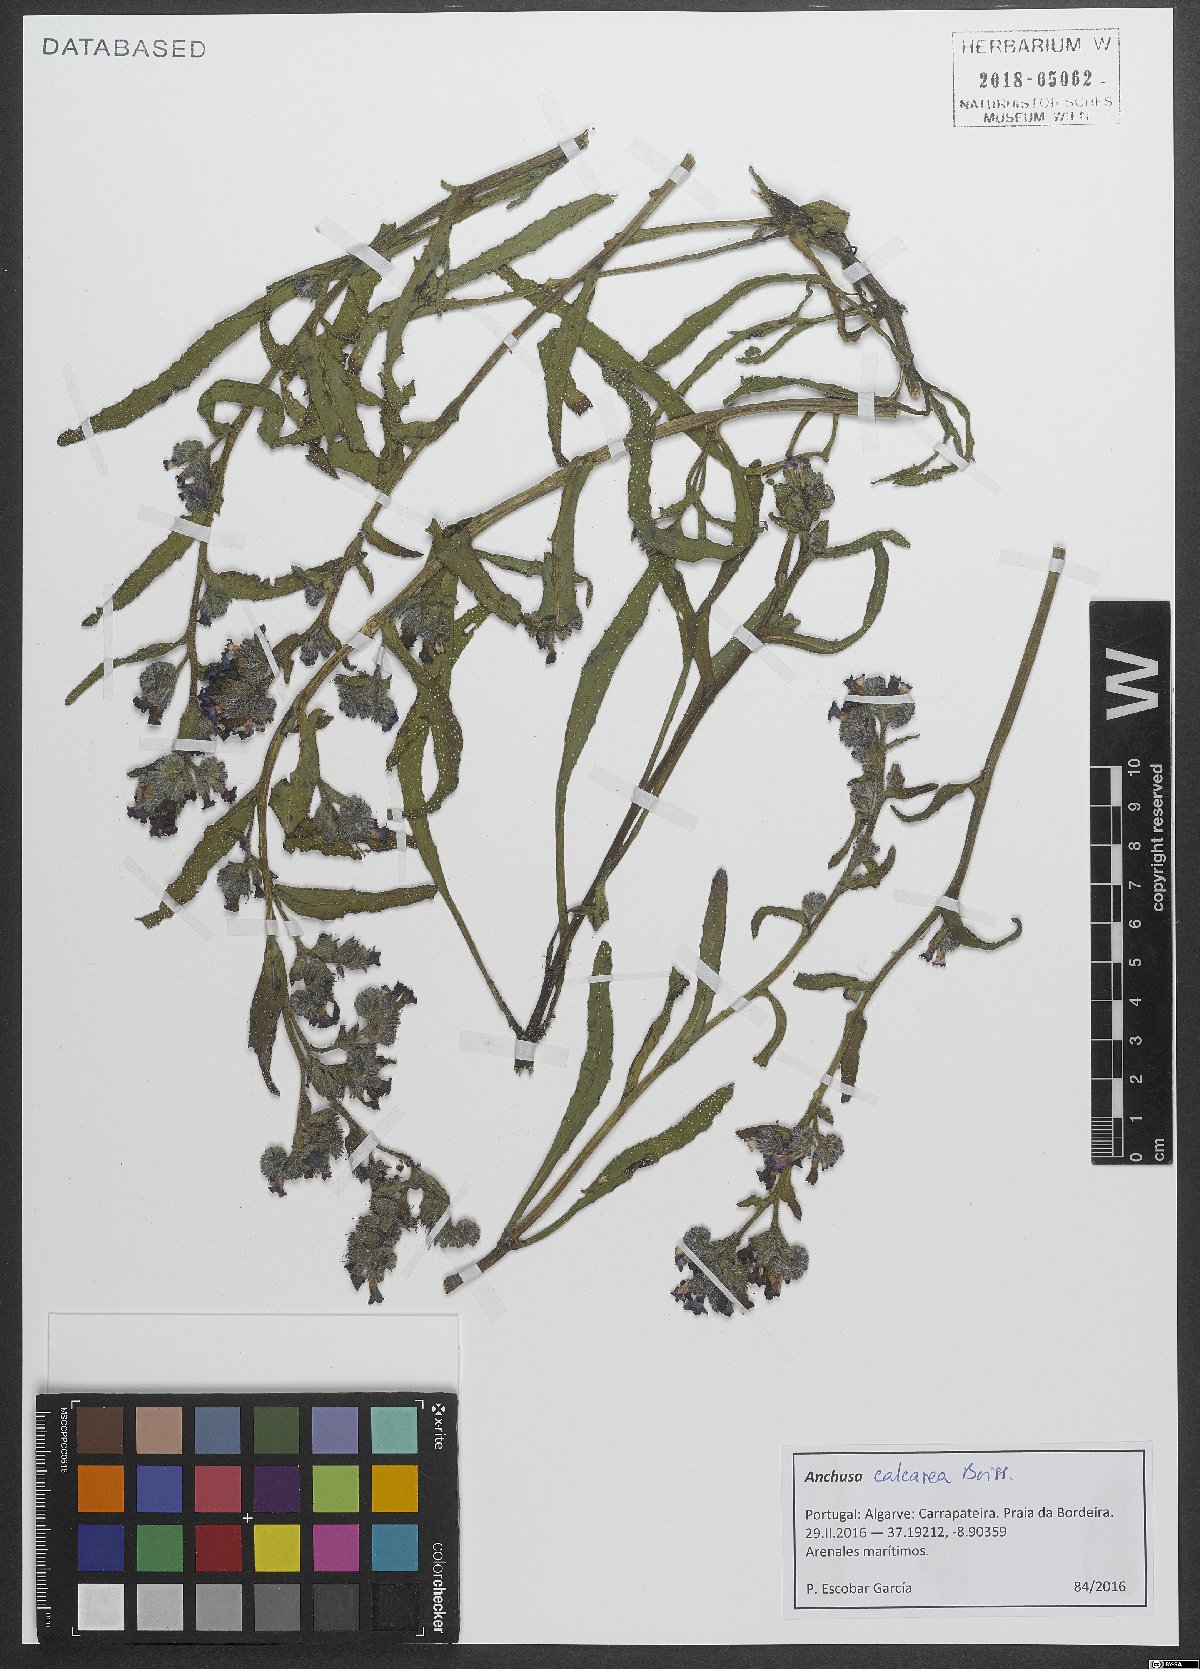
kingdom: Plantae
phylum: Tracheophyta
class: Magnoliopsida
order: Boraginales
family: Boraginaceae
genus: Anchusa
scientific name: Anchusa calcarea
